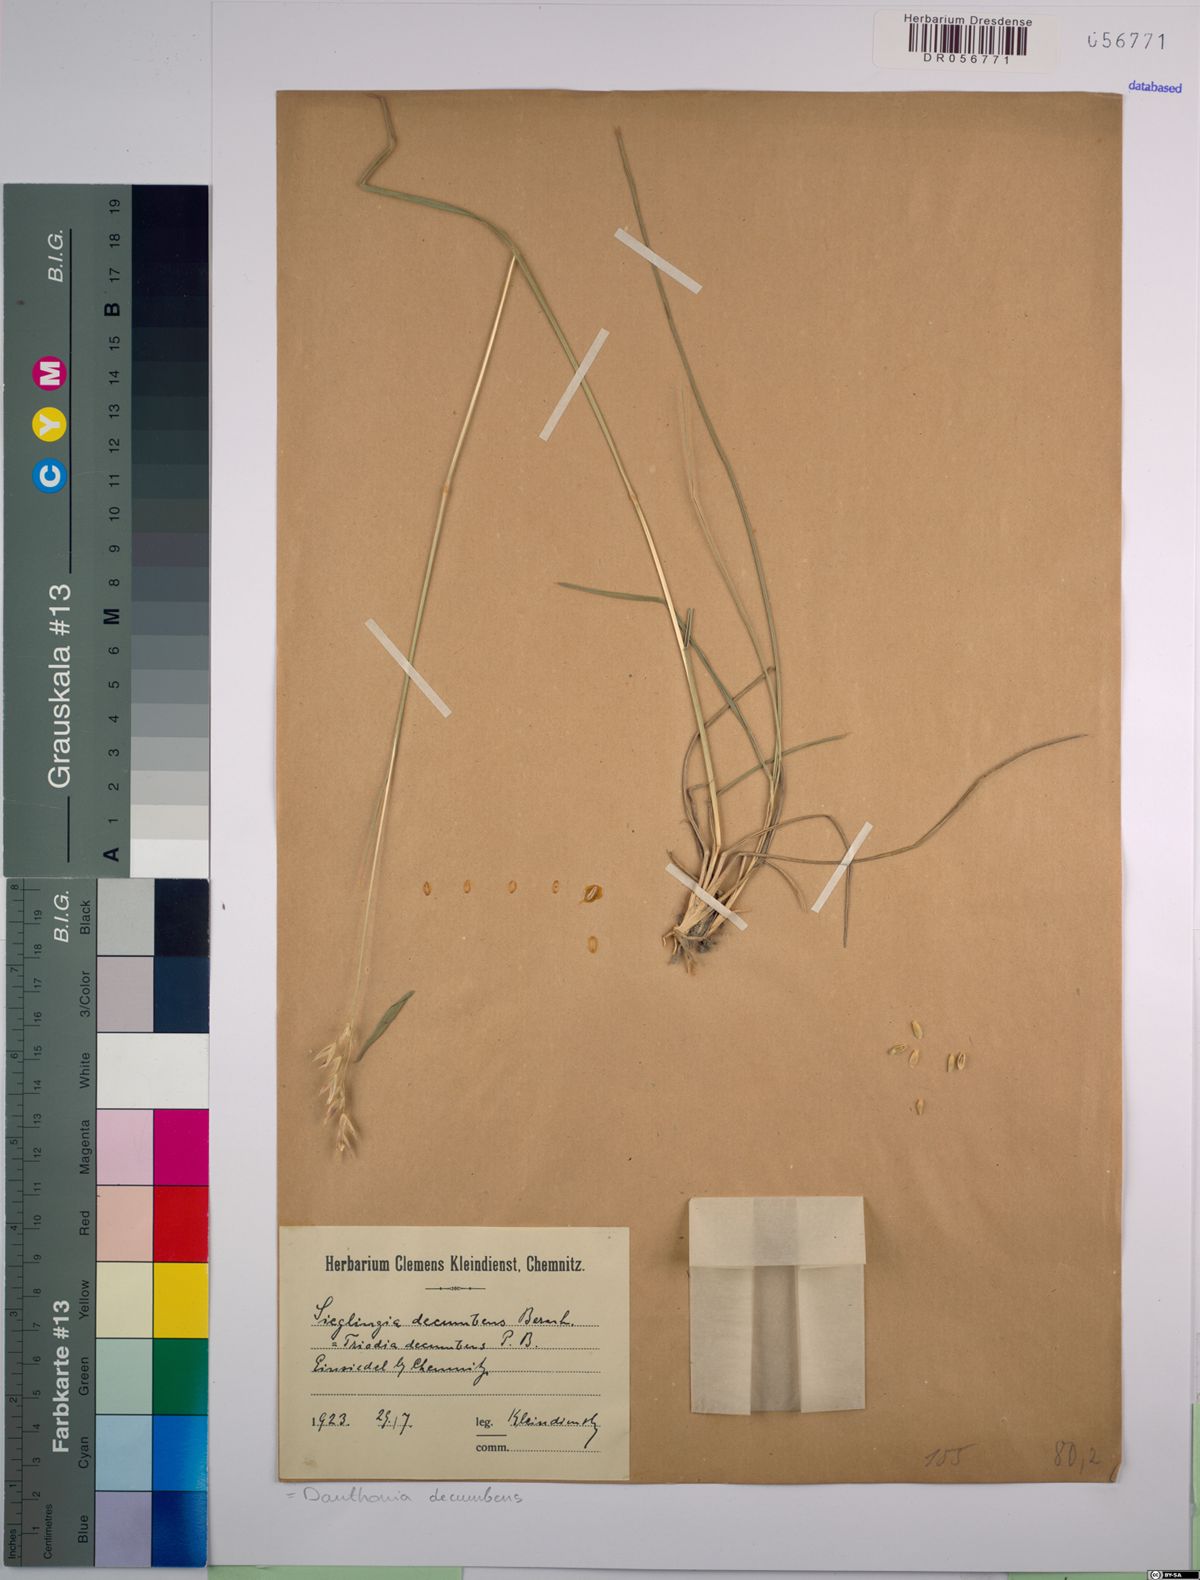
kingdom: Plantae
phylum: Tracheophyta
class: Liliopsida
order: Poales
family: Poaceae
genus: Danthonia
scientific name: Danthonia decumbens
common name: Common heathgrass
